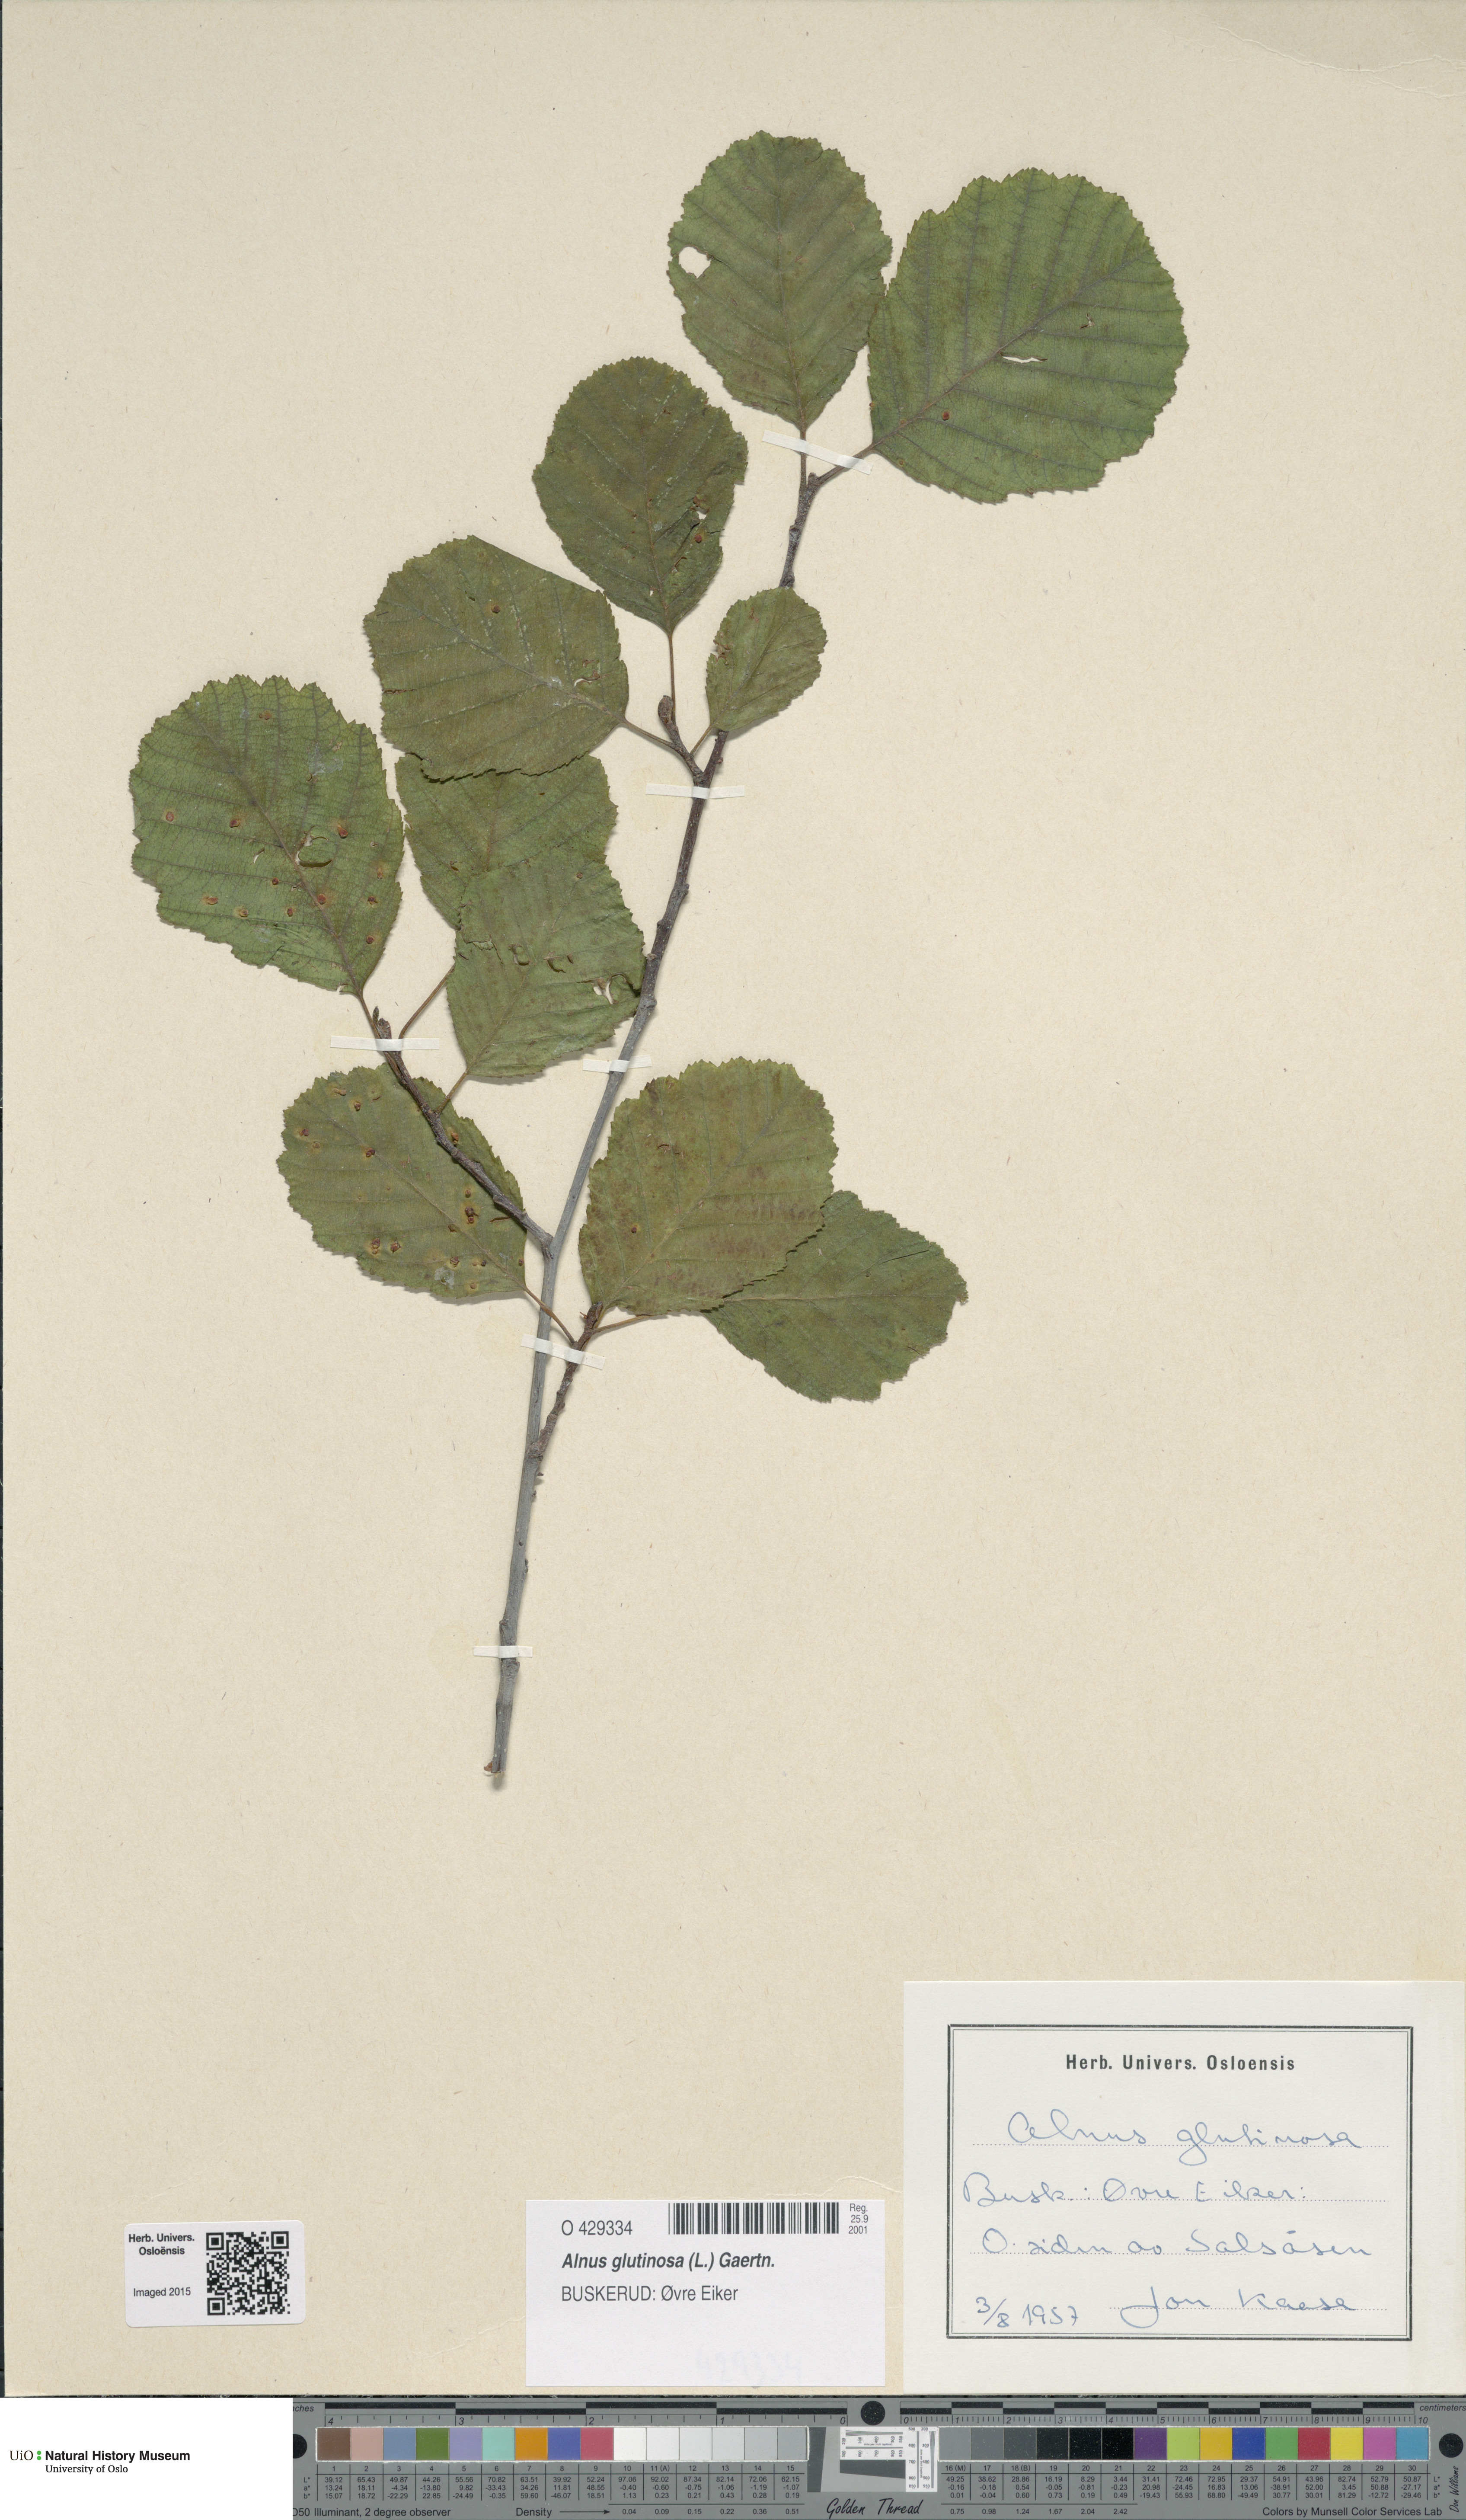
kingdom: Plantae
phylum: Tracheophyta
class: Magnoliopsida
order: Fagales
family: Betulaceae
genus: Alnus
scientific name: Alnus glutinosa
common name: Black alder
